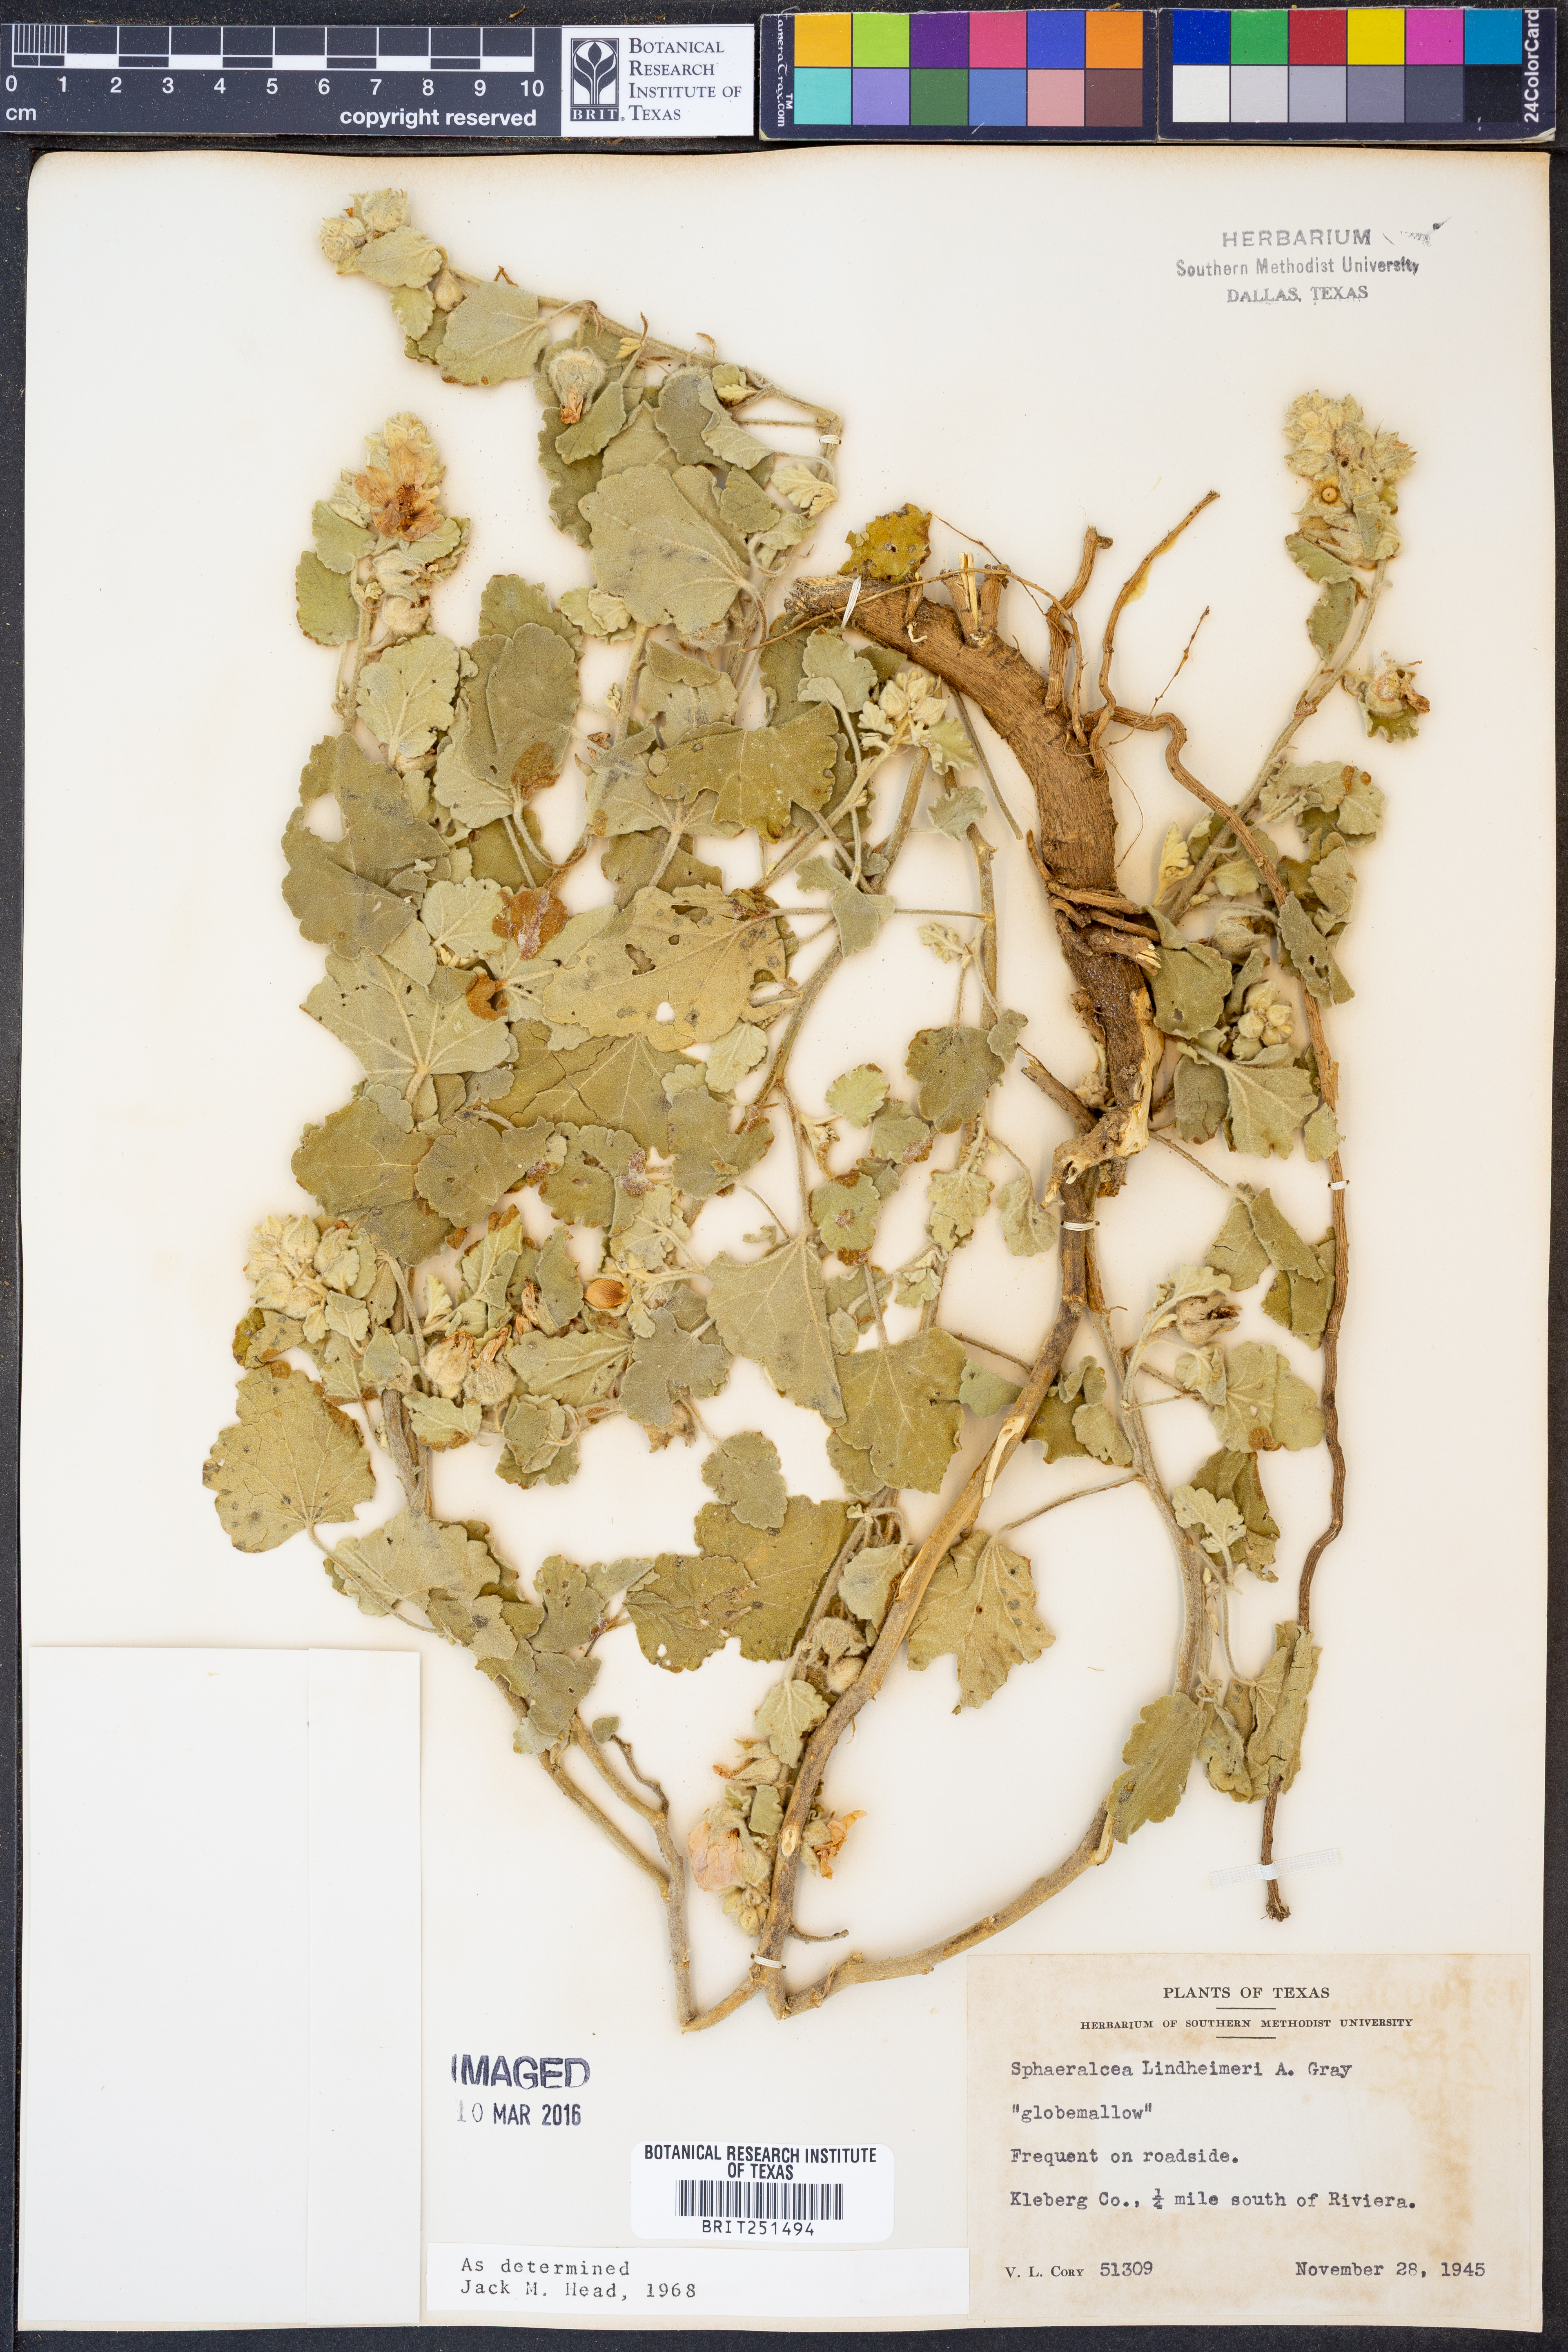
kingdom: Plantae
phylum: Tracheophyta
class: Magnoliopsida
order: Malvales
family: Malvaceae
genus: Sphaeralcea
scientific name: Sphaeralcea lindheimeri
